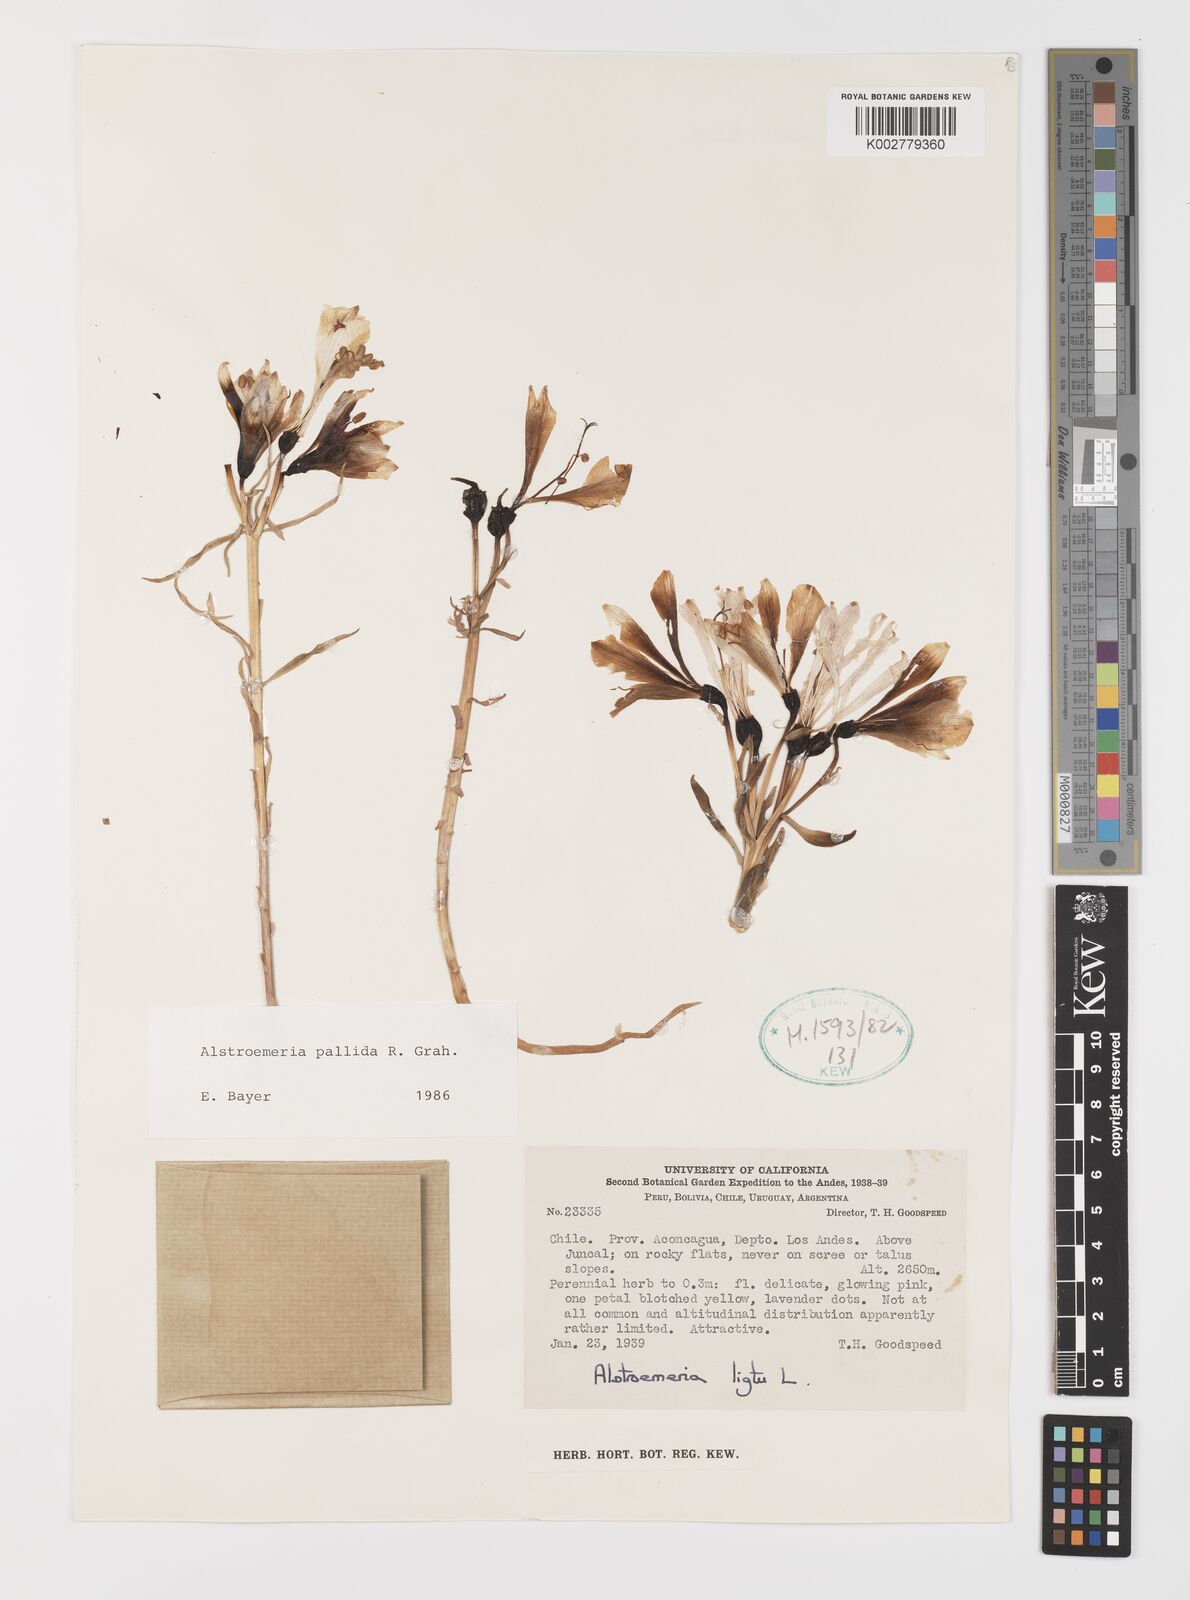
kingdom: Plantae
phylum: Tracheophyta
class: Liliopsida
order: Liliales
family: Alstroemeriaceae
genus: Alstroemeria
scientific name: Alstroemeria pallida
